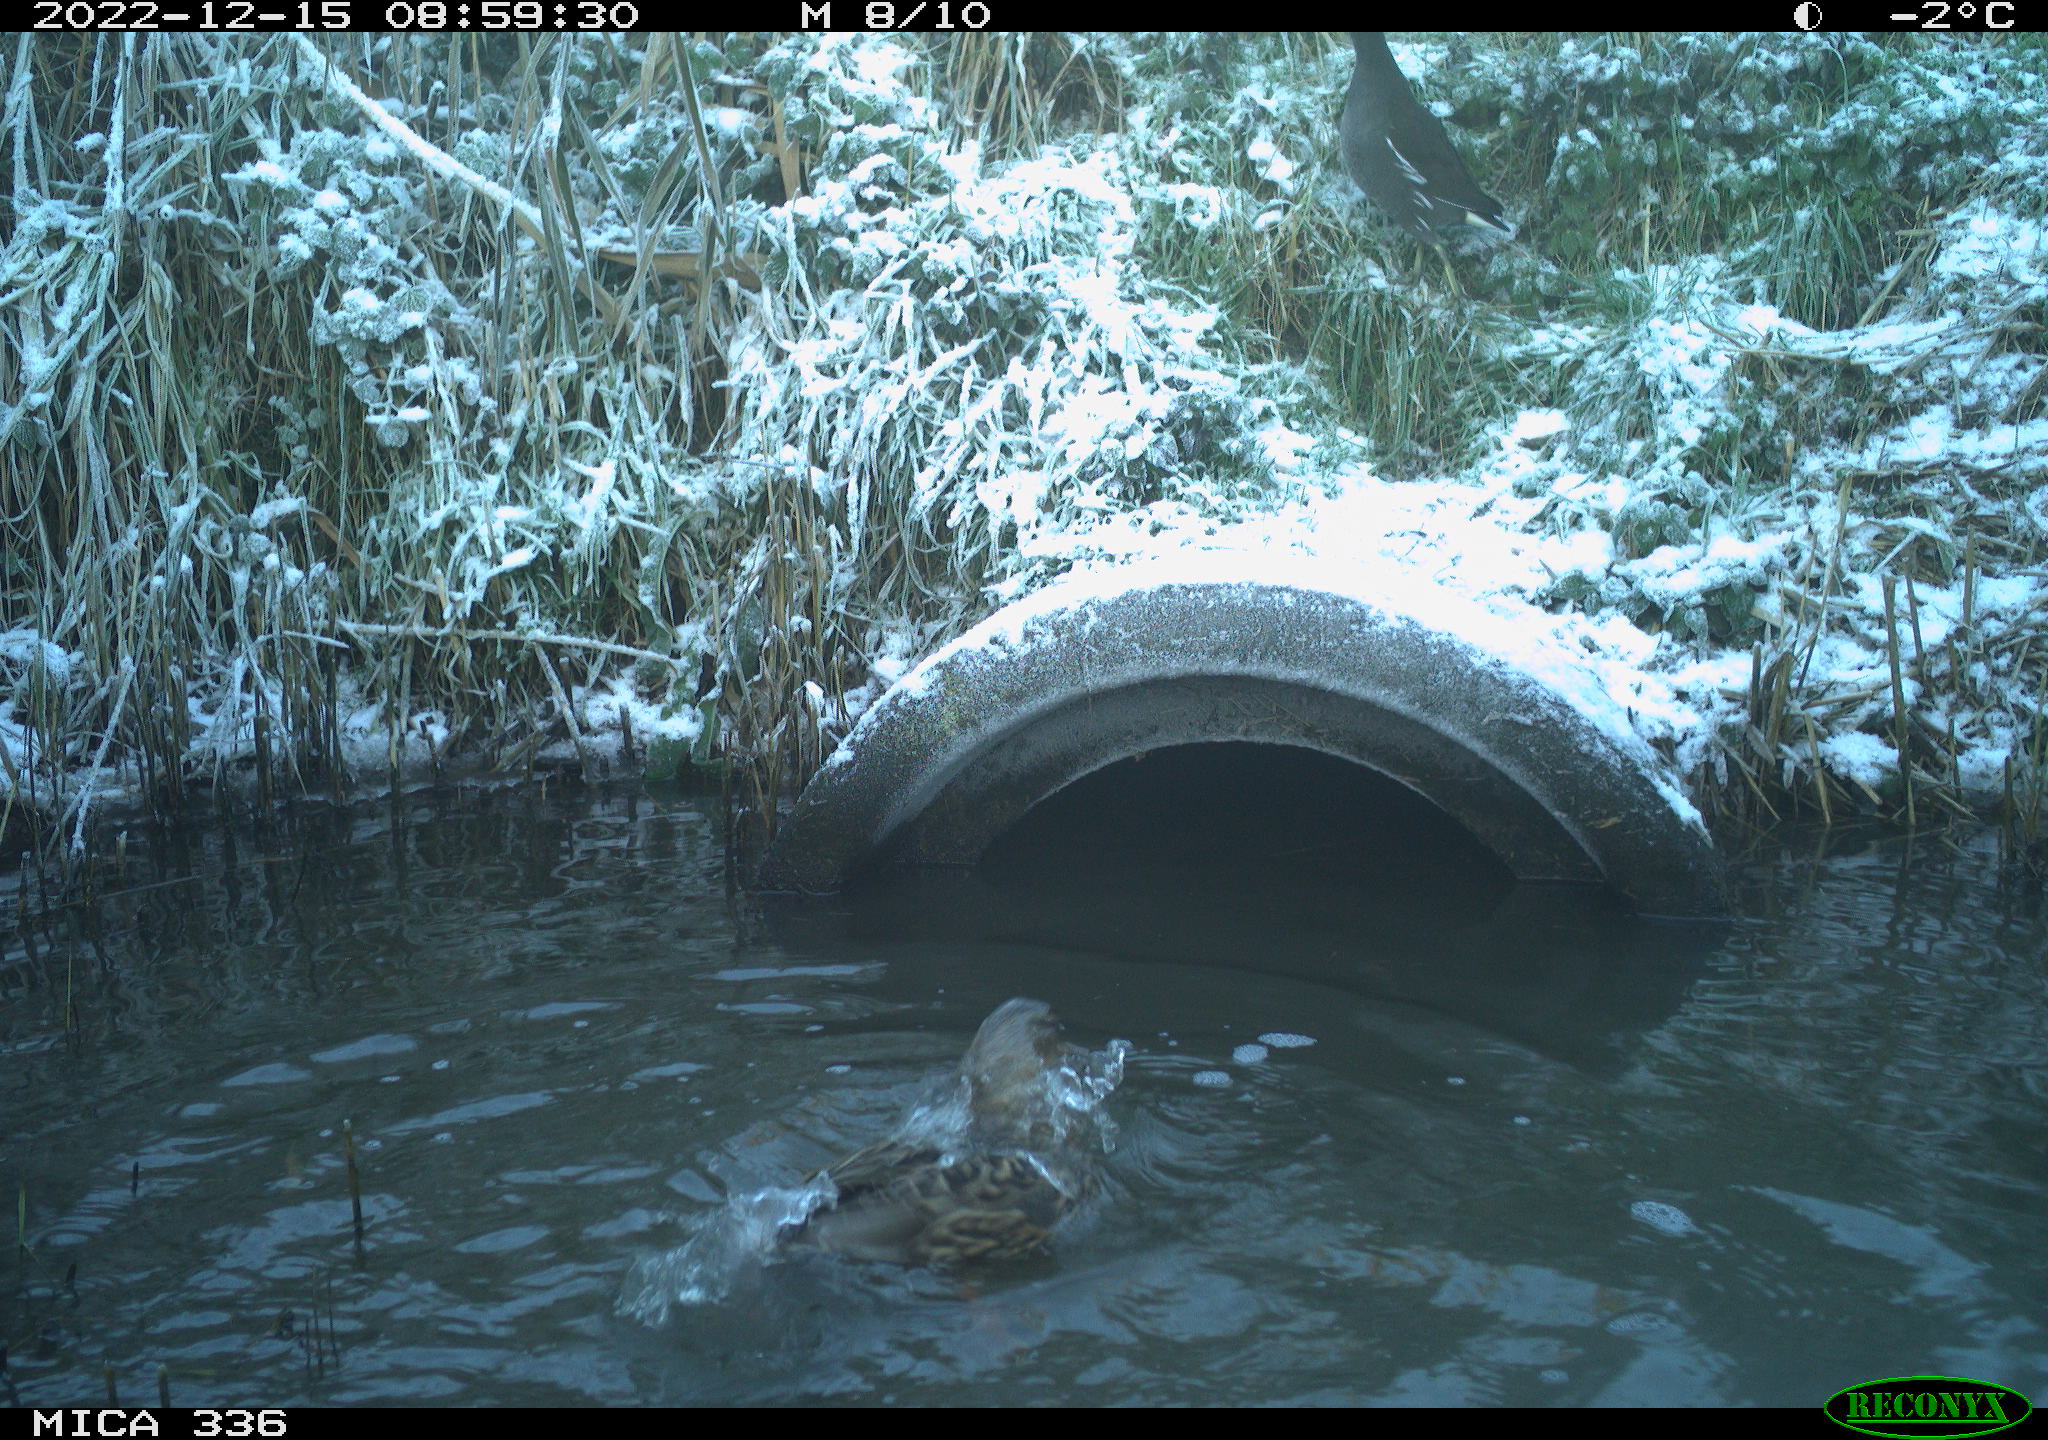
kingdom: Animalia
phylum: Chordata
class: Aves
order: Anseriformes
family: Anatidae
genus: Anas
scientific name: Anas
